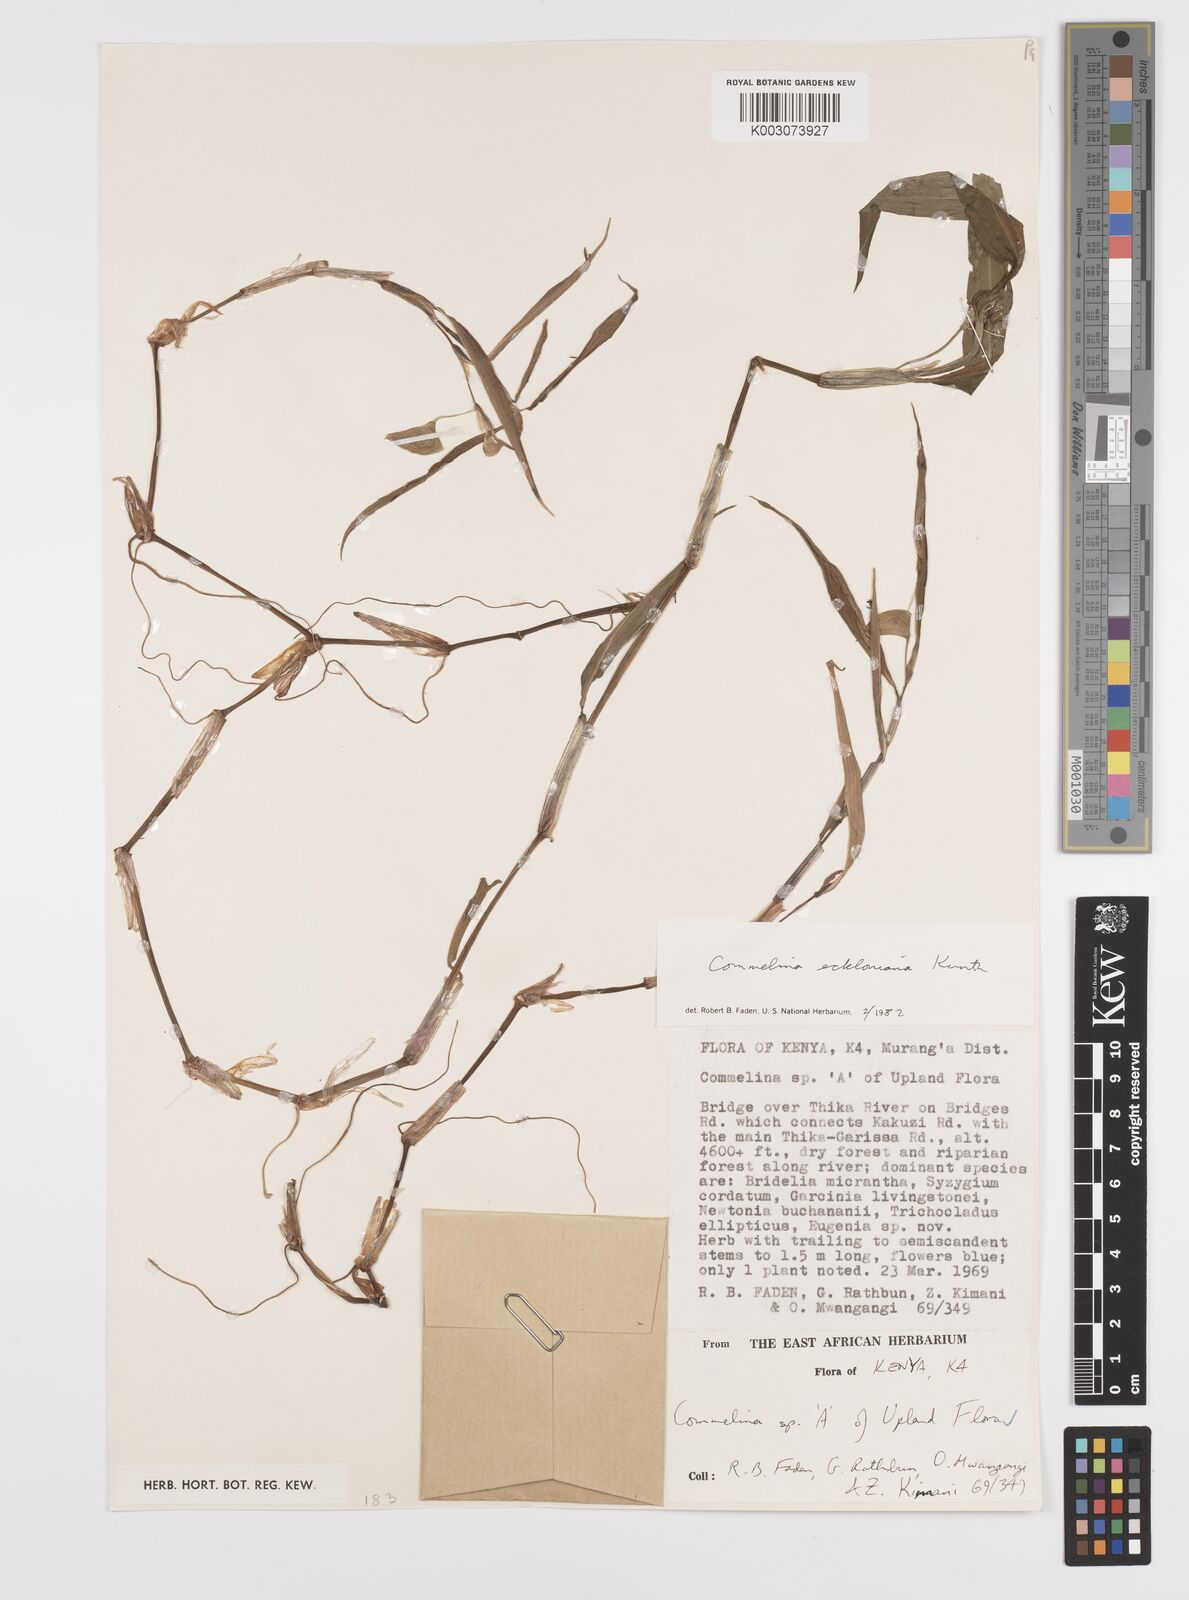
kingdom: Plantae
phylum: Tracheophyta
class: Liliopsida
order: Commelinales
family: Commelinaceae
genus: Commelina
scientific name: Commelina eckloniana
